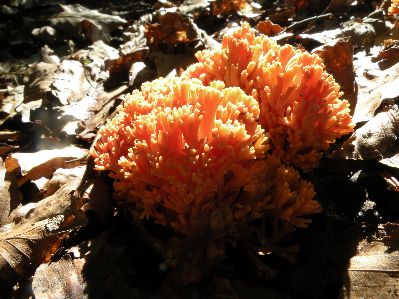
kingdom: Fungi
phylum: Basidiomycota
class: Agaricomycetes
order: Gomphales
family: Gomphaceae
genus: Ramaria
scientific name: Ramaria fagetorum
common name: abrikos-koralsvamp
